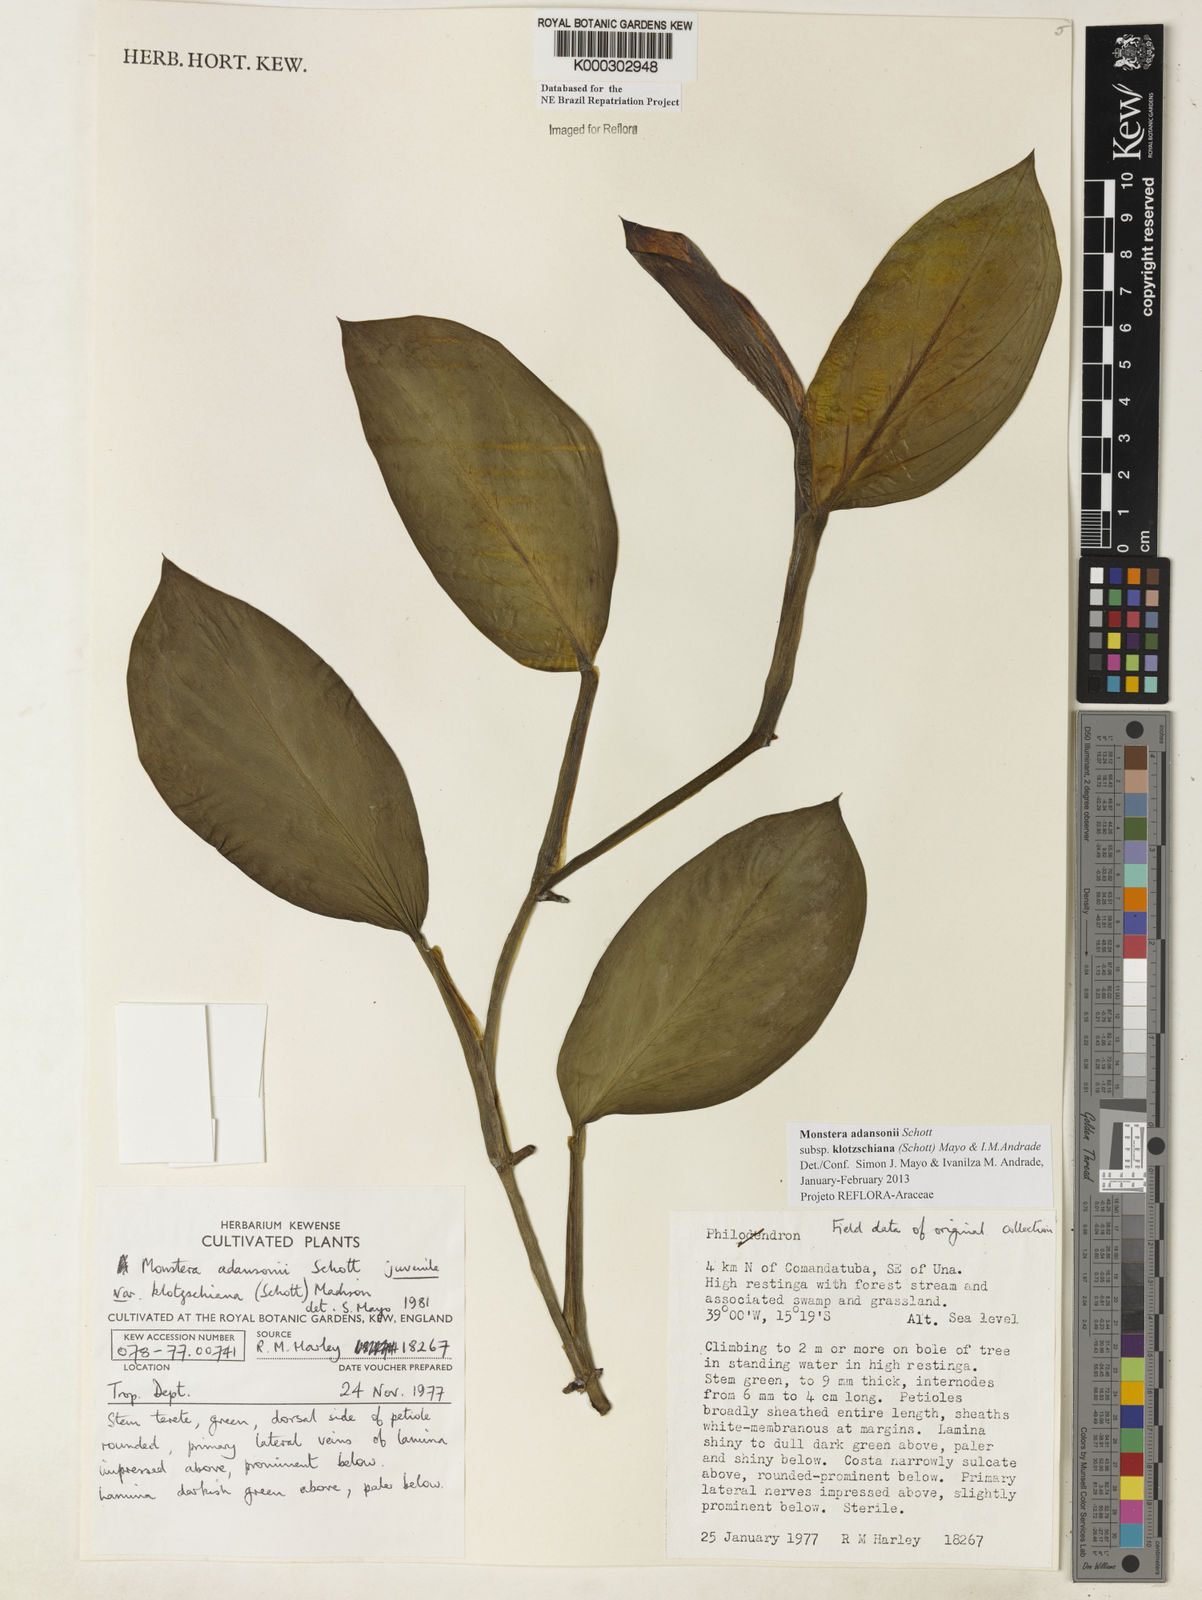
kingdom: Plantae
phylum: Tracheophyta
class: Liliopsida
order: Alismatales
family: Araceae
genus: Monstera
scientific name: Monstera adansonii
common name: Tarovine
